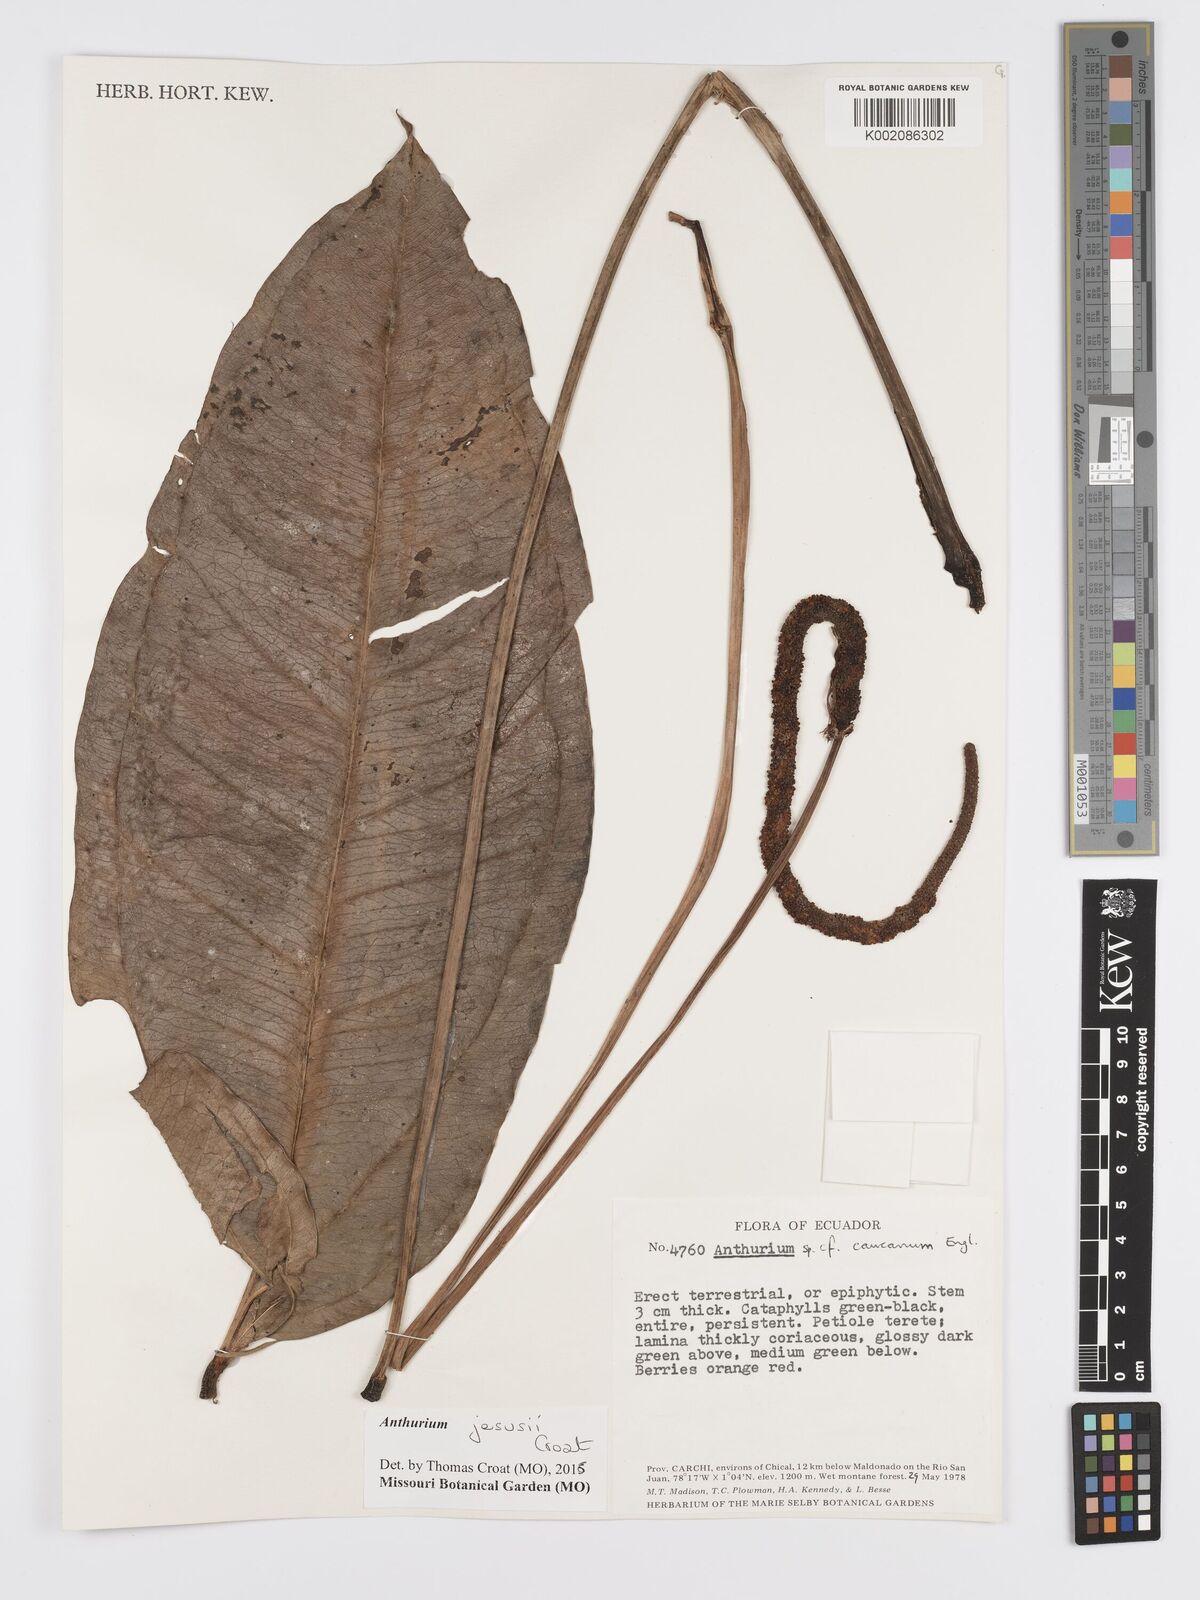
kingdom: Plantae
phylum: Tracheophyta
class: Liliopsida
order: Alismatales
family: Araceae
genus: Anthurium
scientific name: Anthurium jesusii
